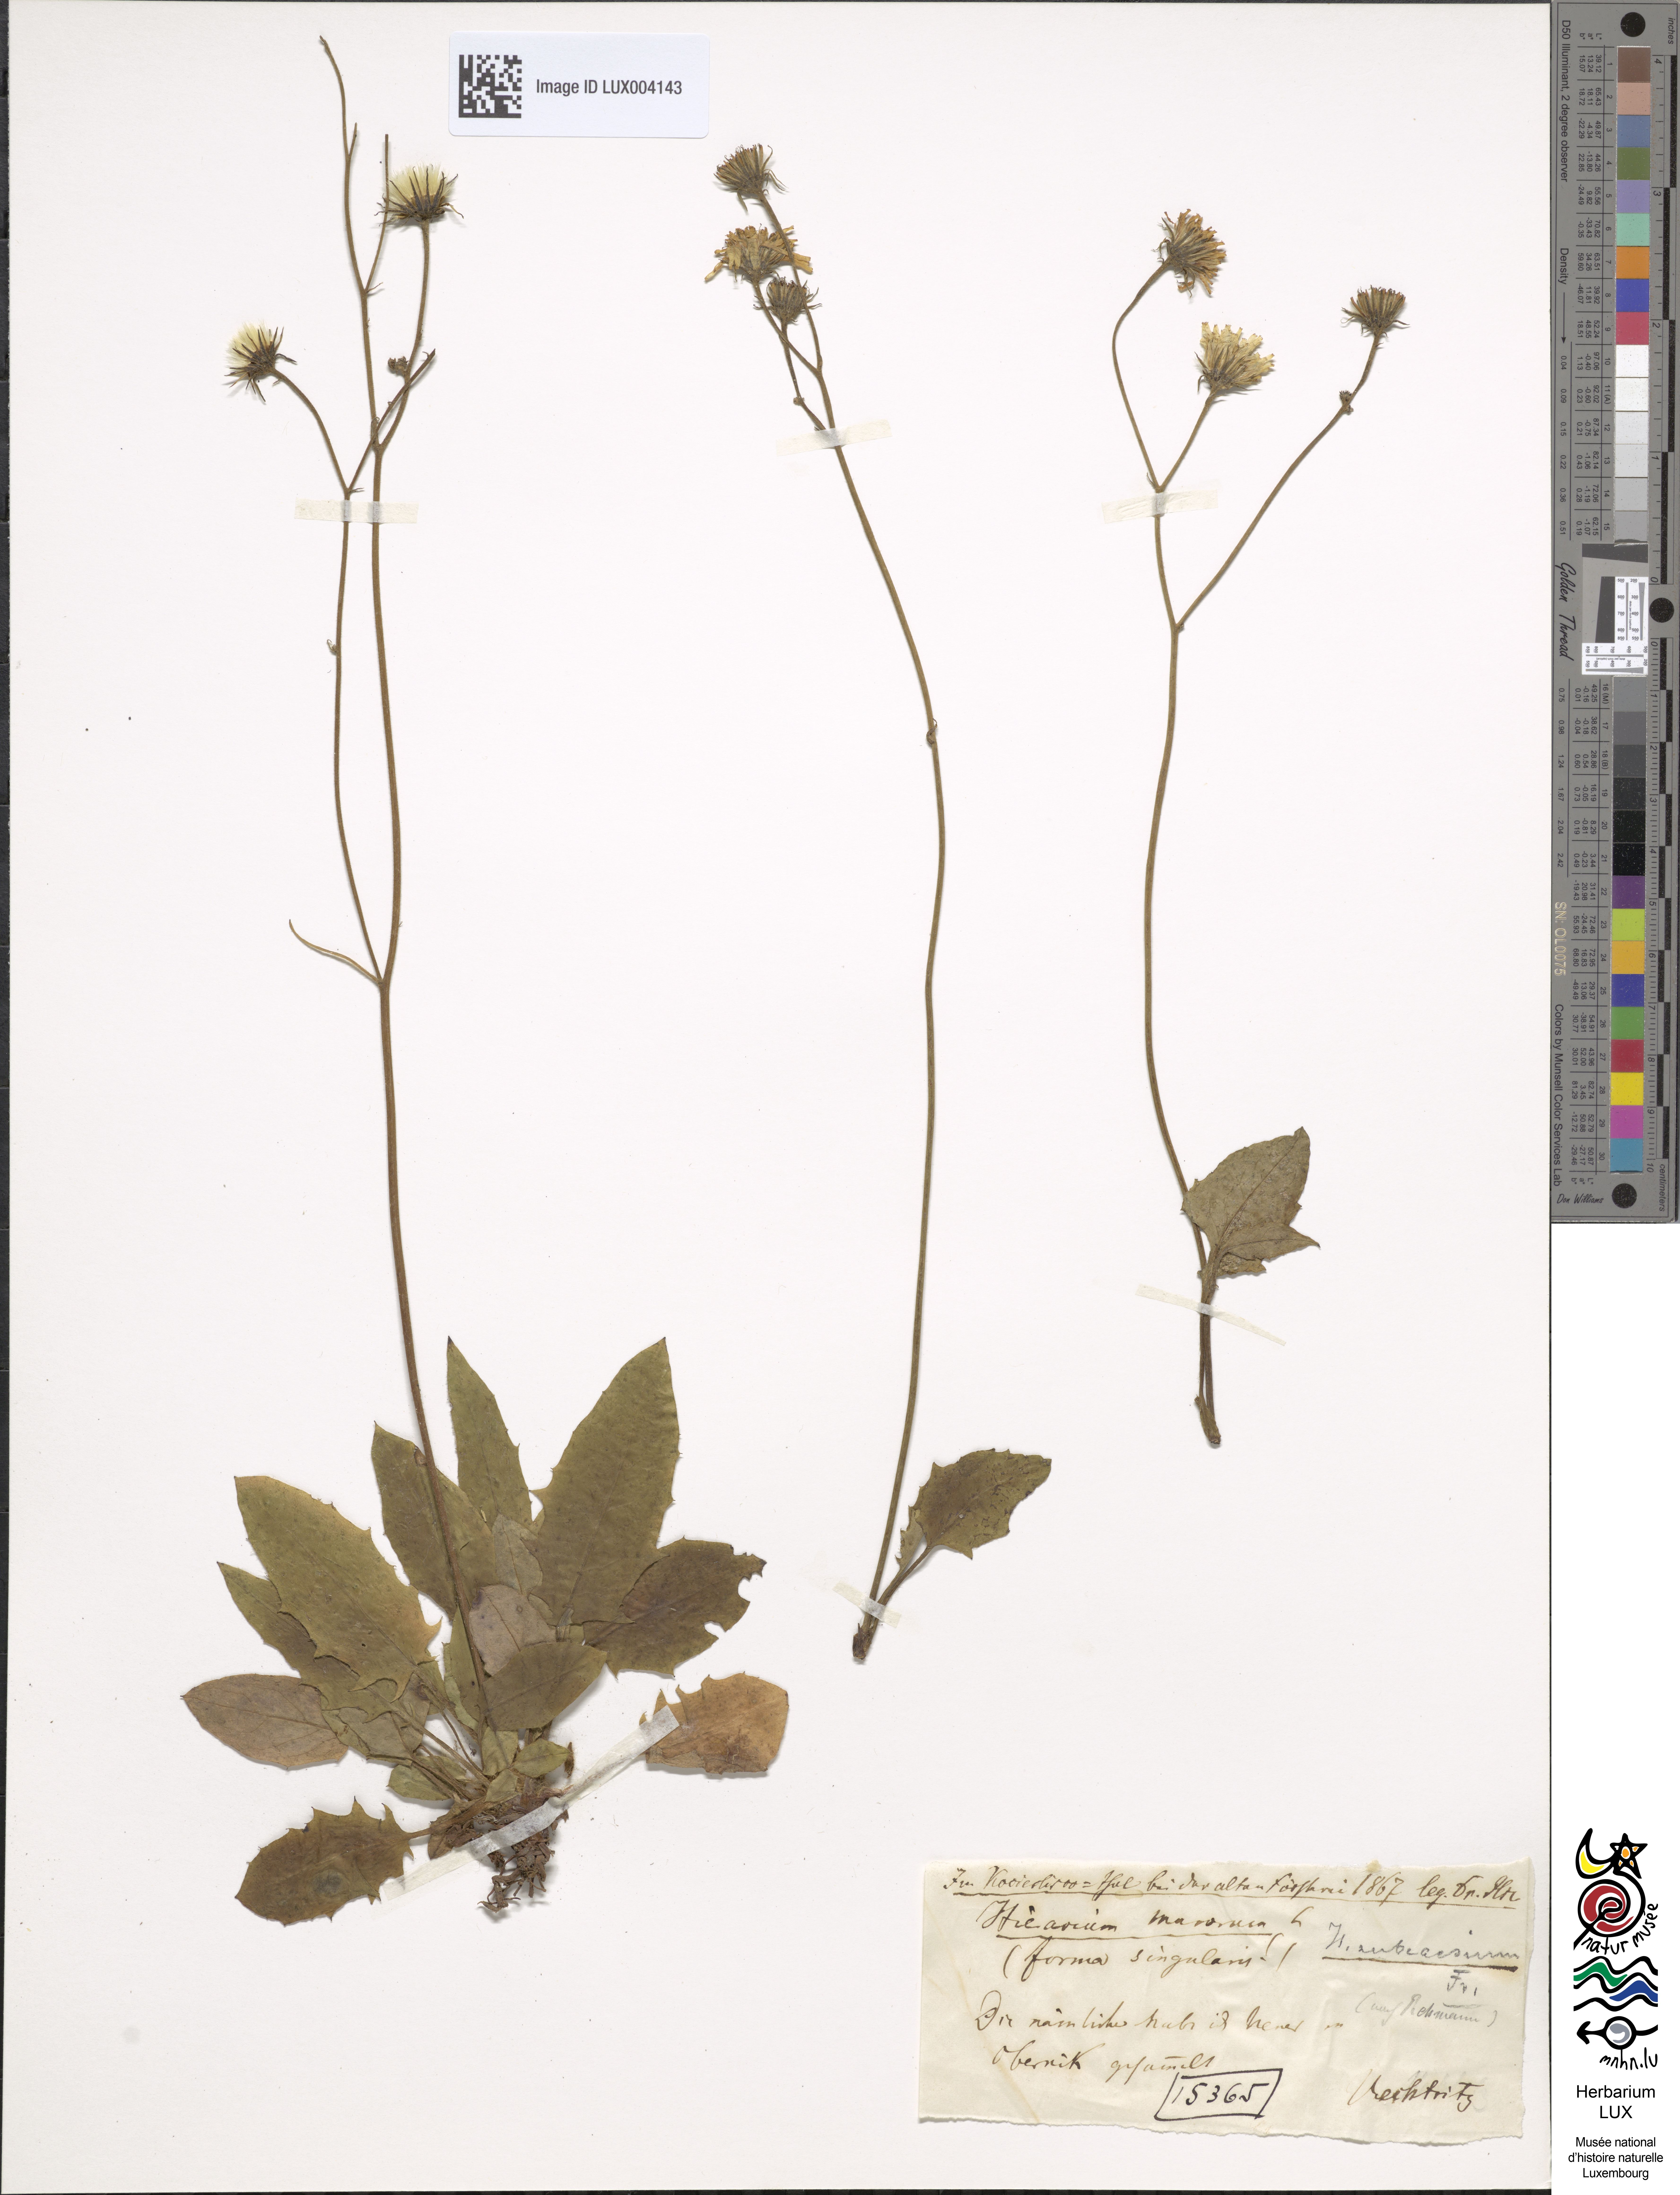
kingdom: Plantae
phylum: Tracheophyta
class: Magnoliopsida
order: Asterales
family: Asteraceae
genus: Hieracium
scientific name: Hieracium subcaesium
